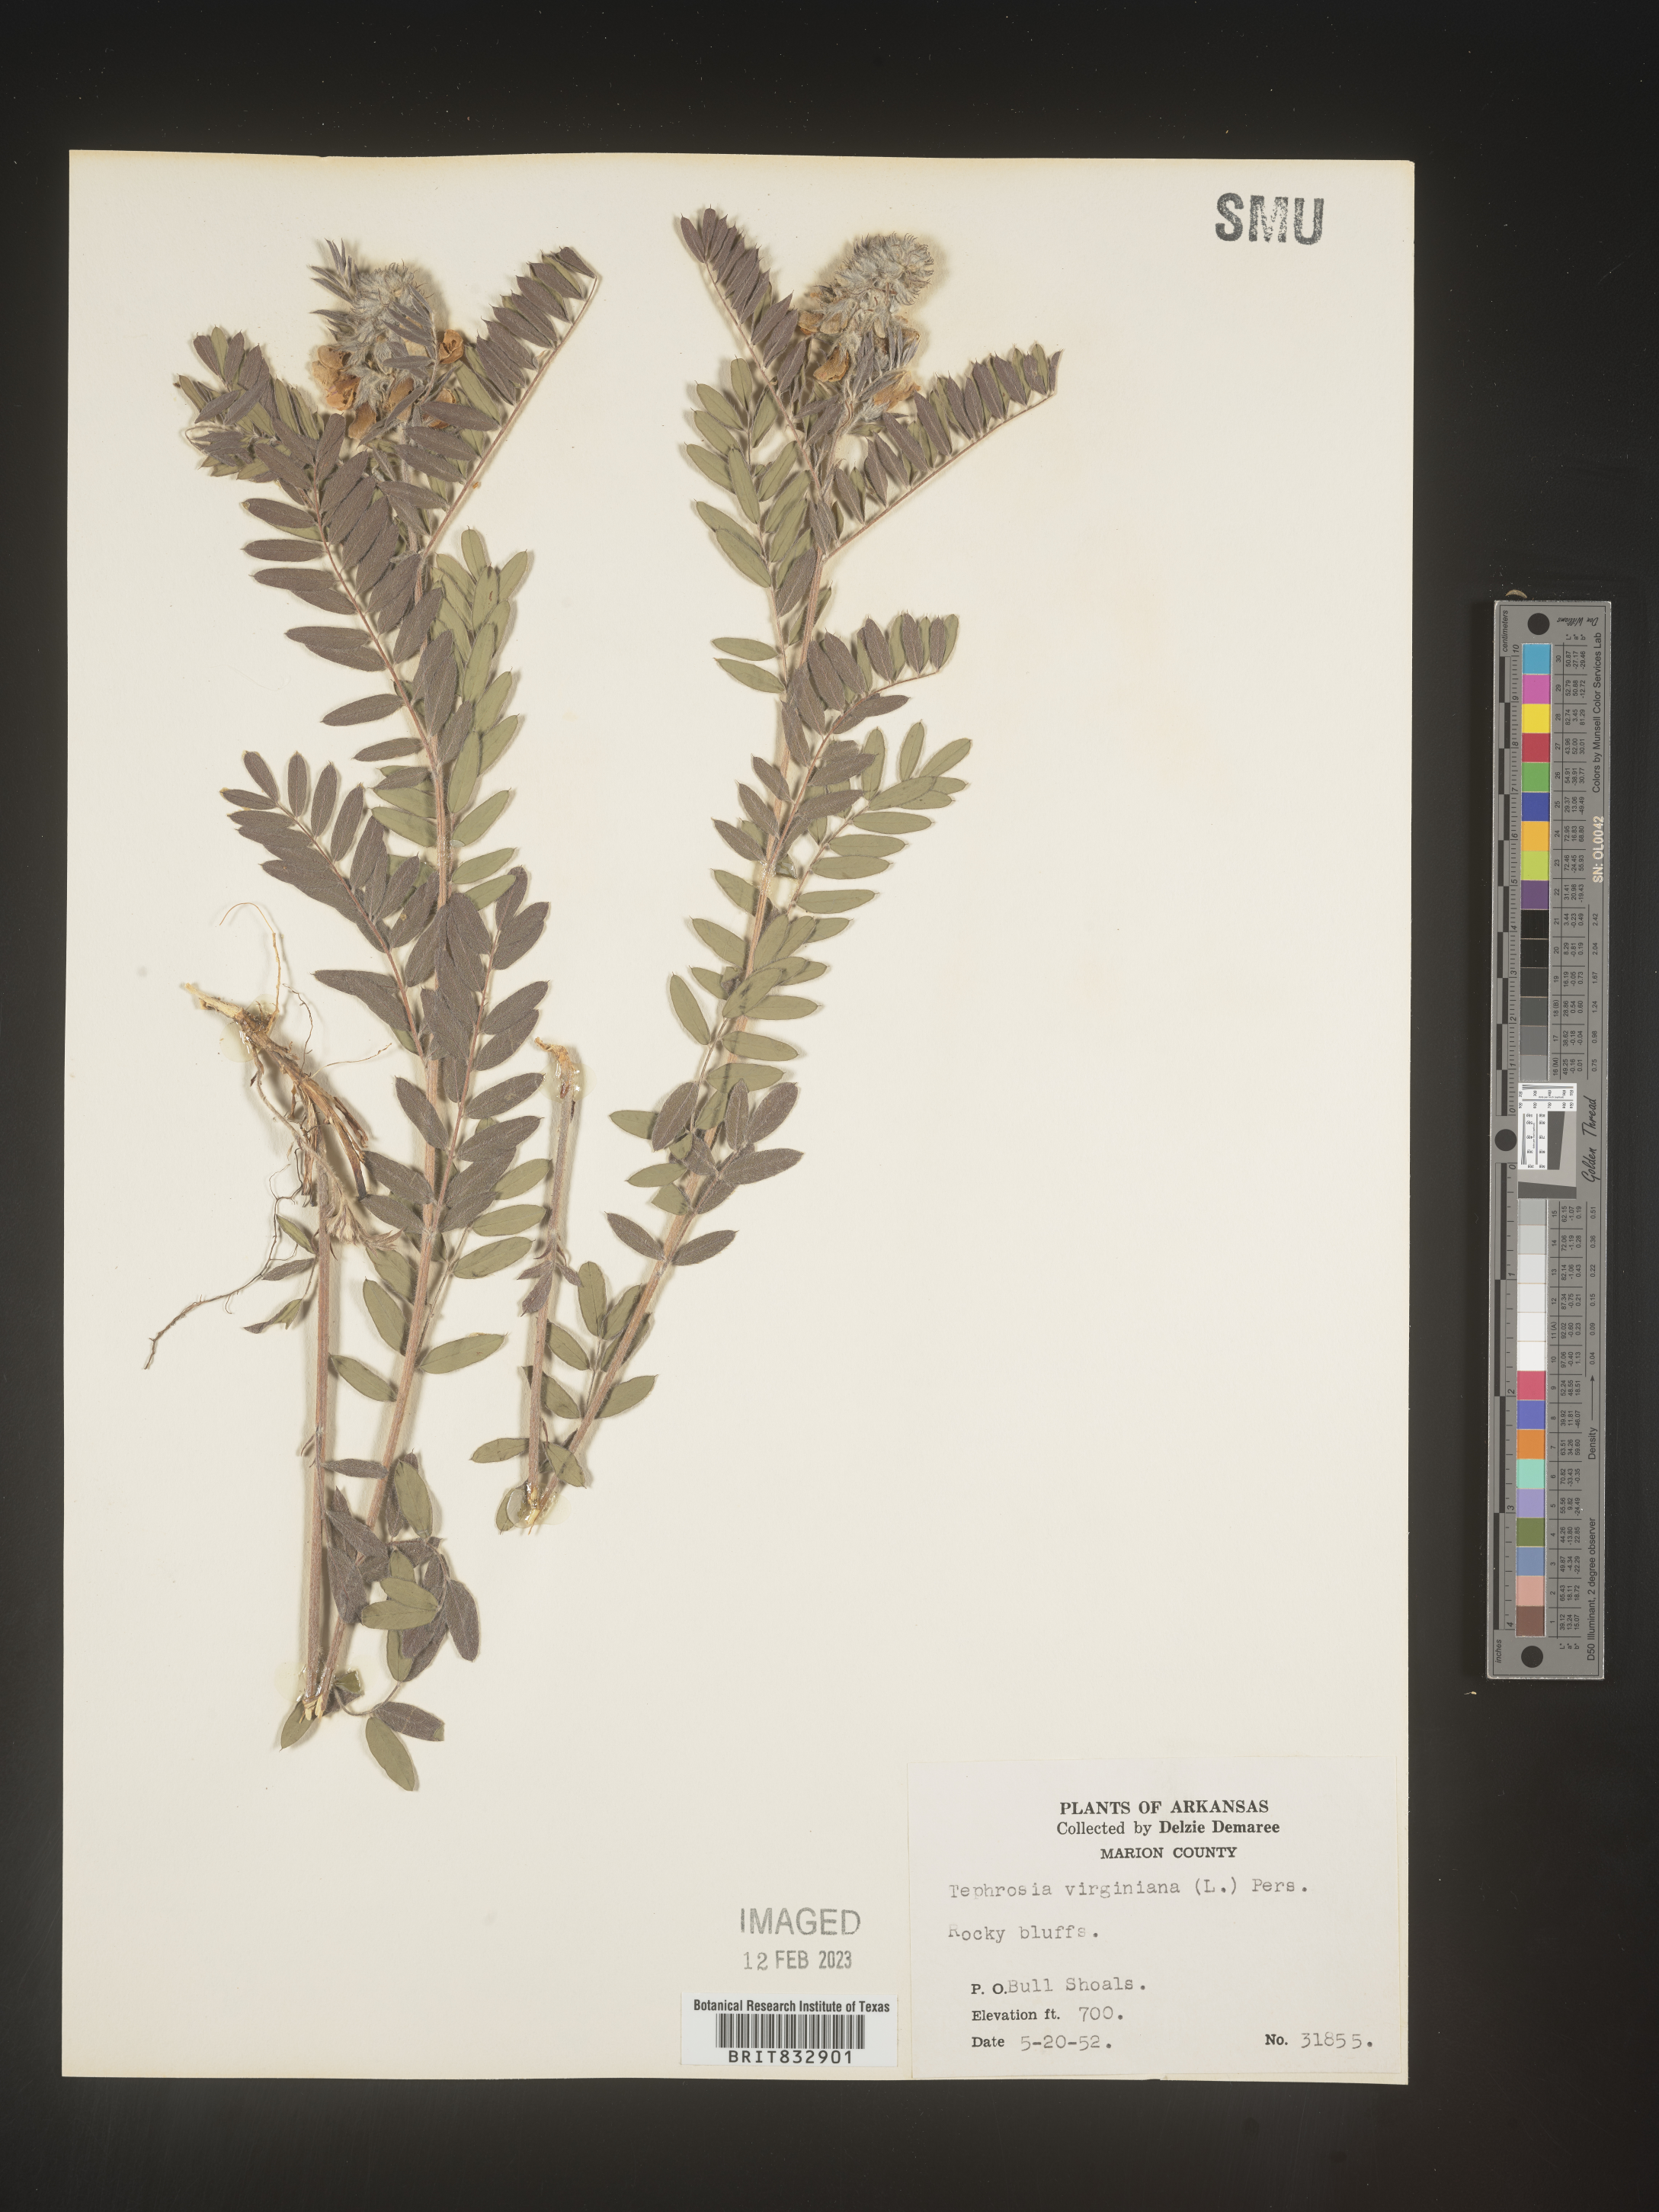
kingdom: Plantae
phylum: Tracheophyta
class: Magnoliopsida
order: Fabales
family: Fabaceae
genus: Tephrosia
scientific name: Tephrosia virginiana
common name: Rabbit-pea
